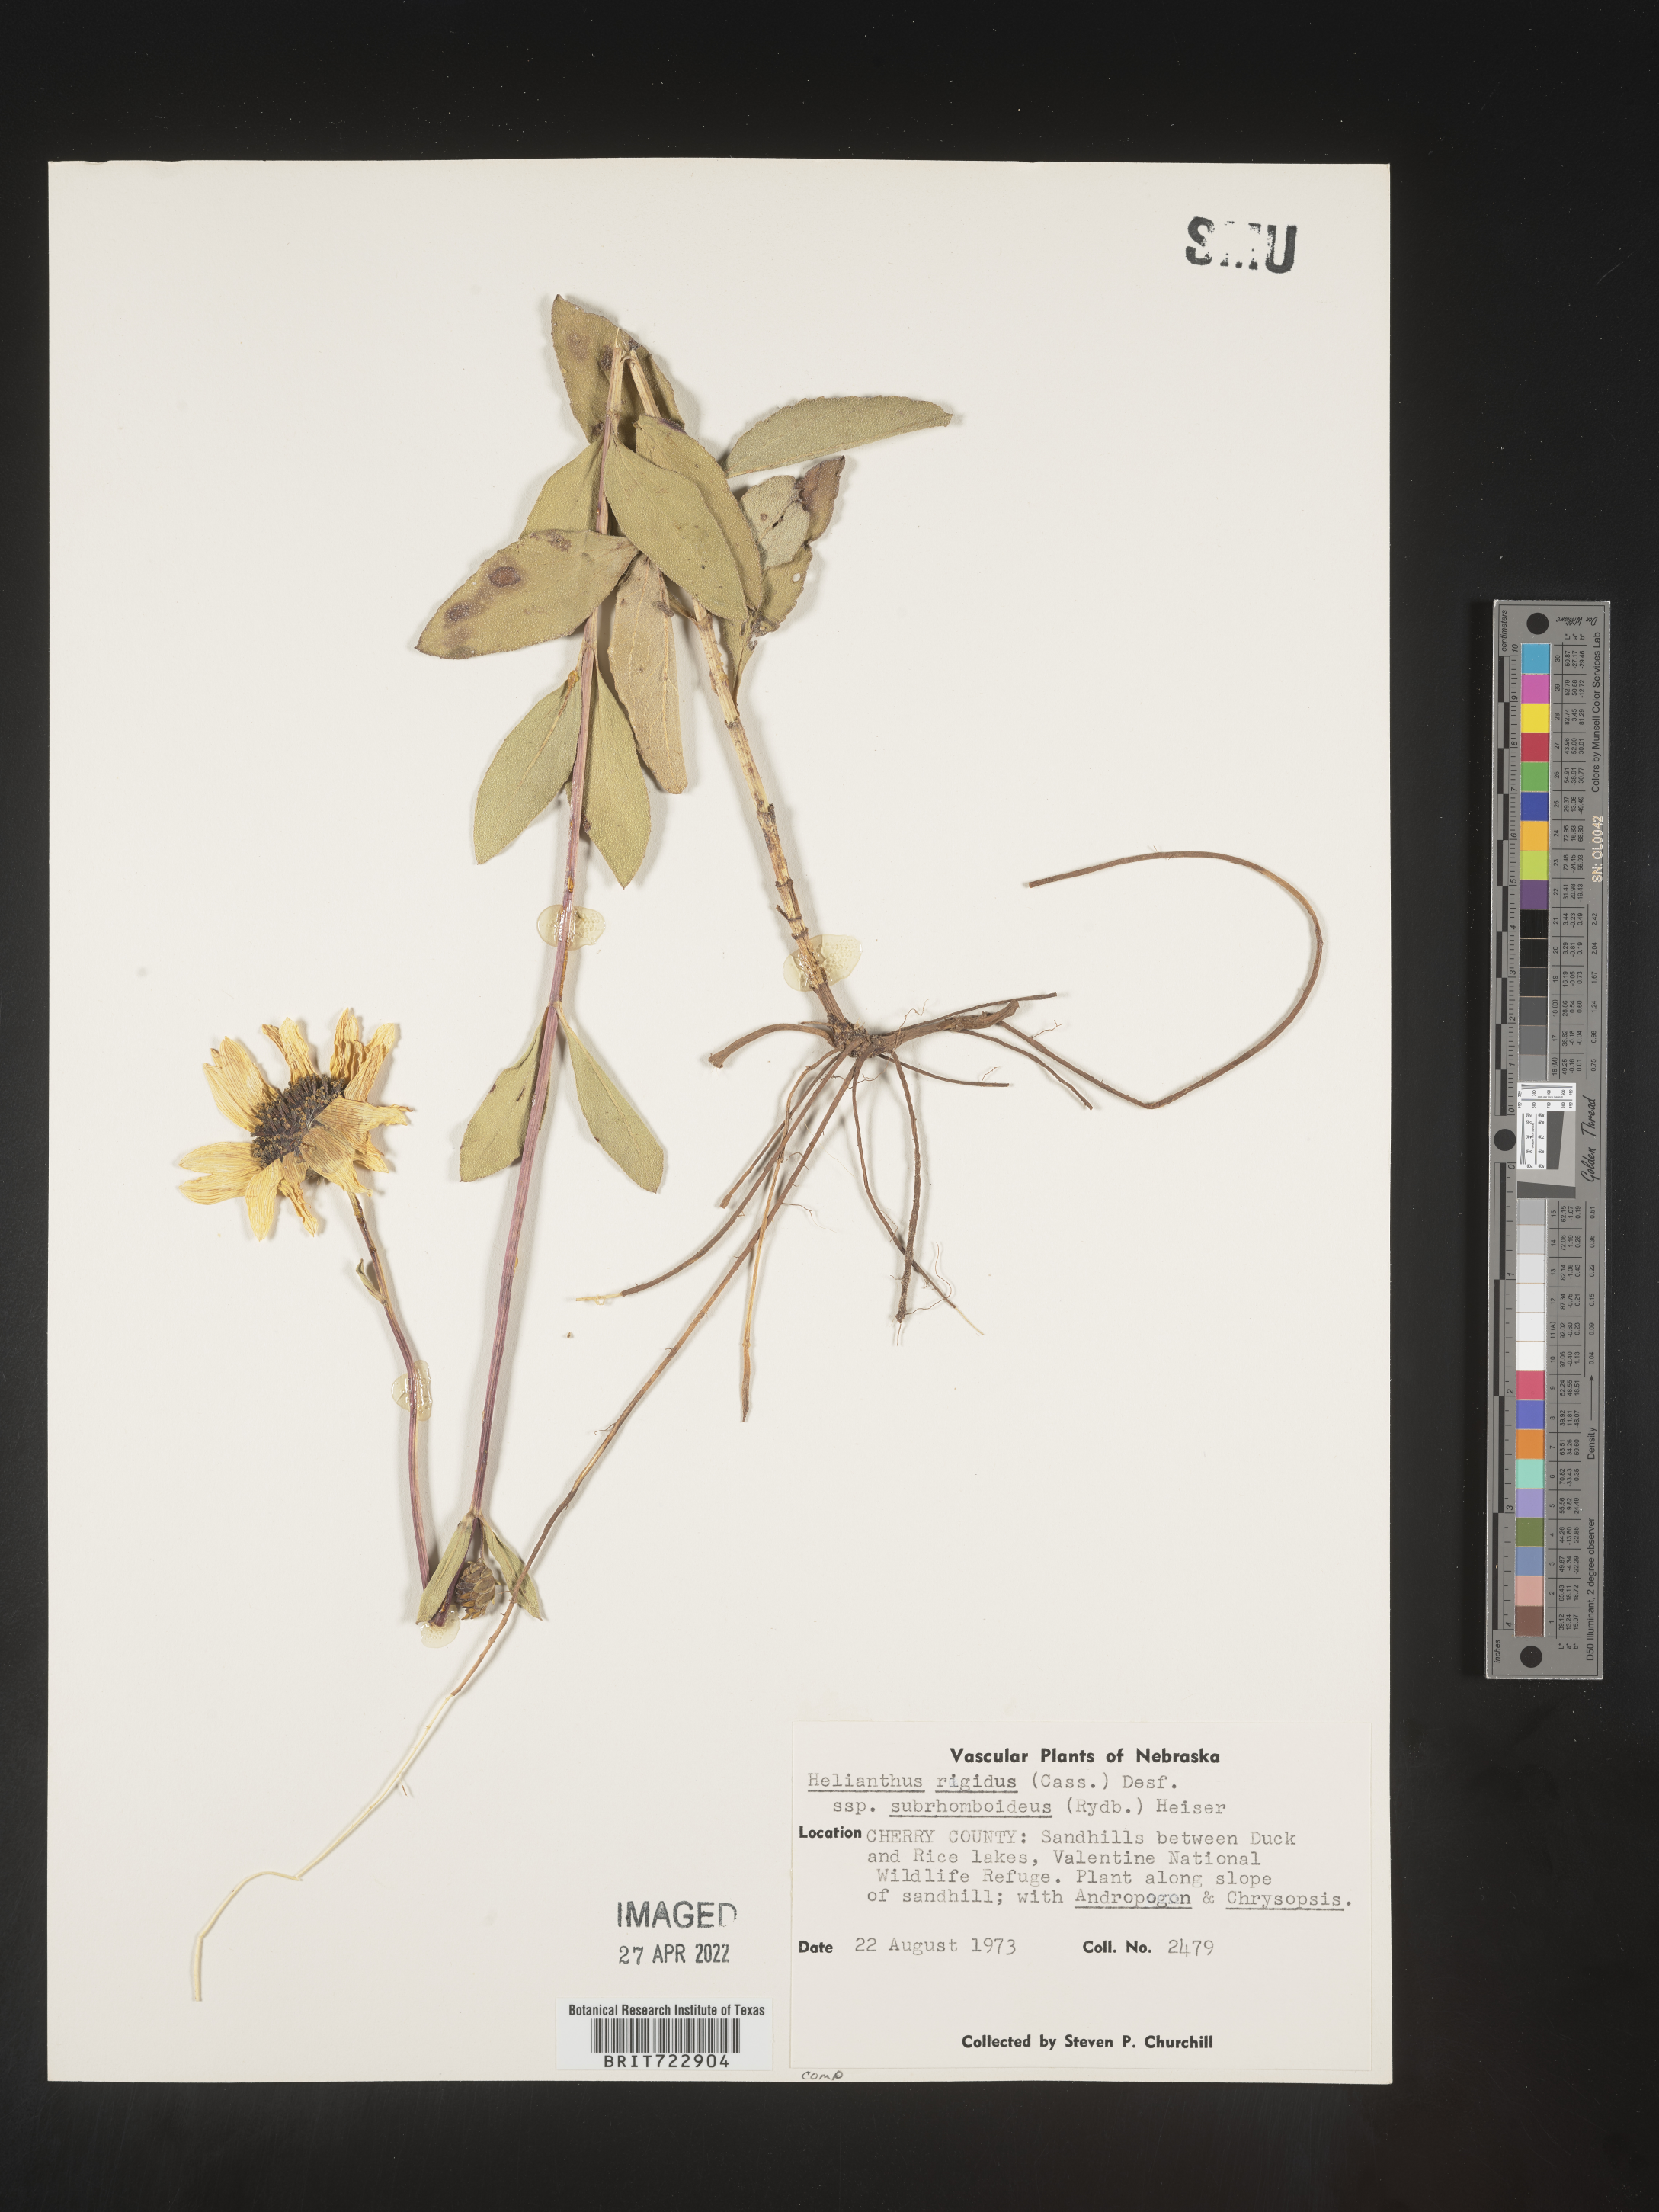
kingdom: Plantae
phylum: Tracheophyta
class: Magnoliopsida
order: Asterales
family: Asteraceae
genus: Helianthus
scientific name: Helianthus
